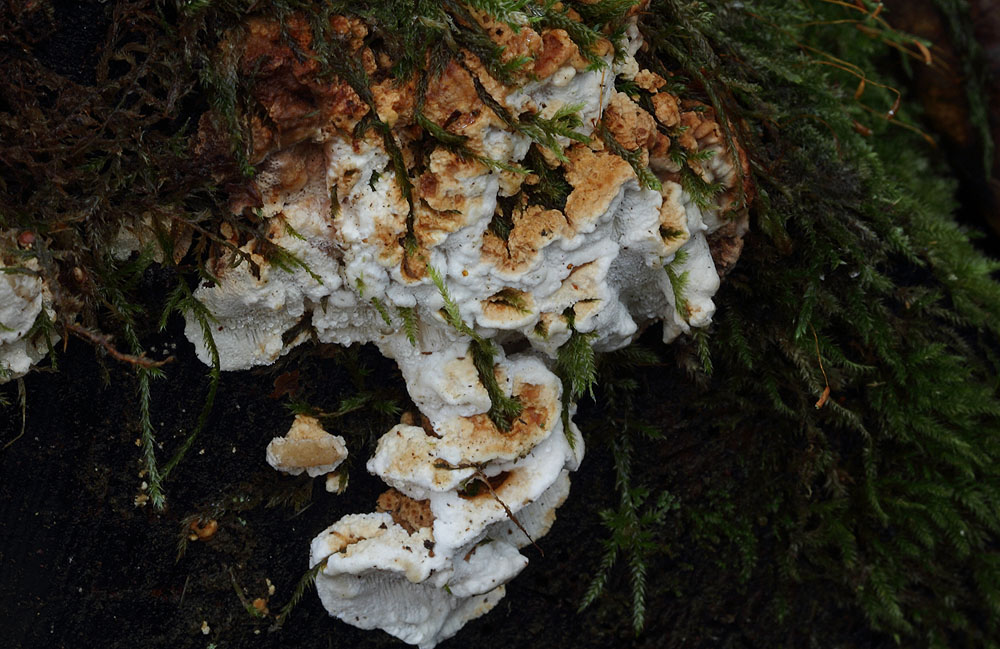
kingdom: Fungi
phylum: Basidiomycota
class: Agaricomycetes
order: Polyporales
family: Fomitopsidaceae
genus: Neoantrodia
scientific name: Neoantrodia serialis
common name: række-sejporesvamp
